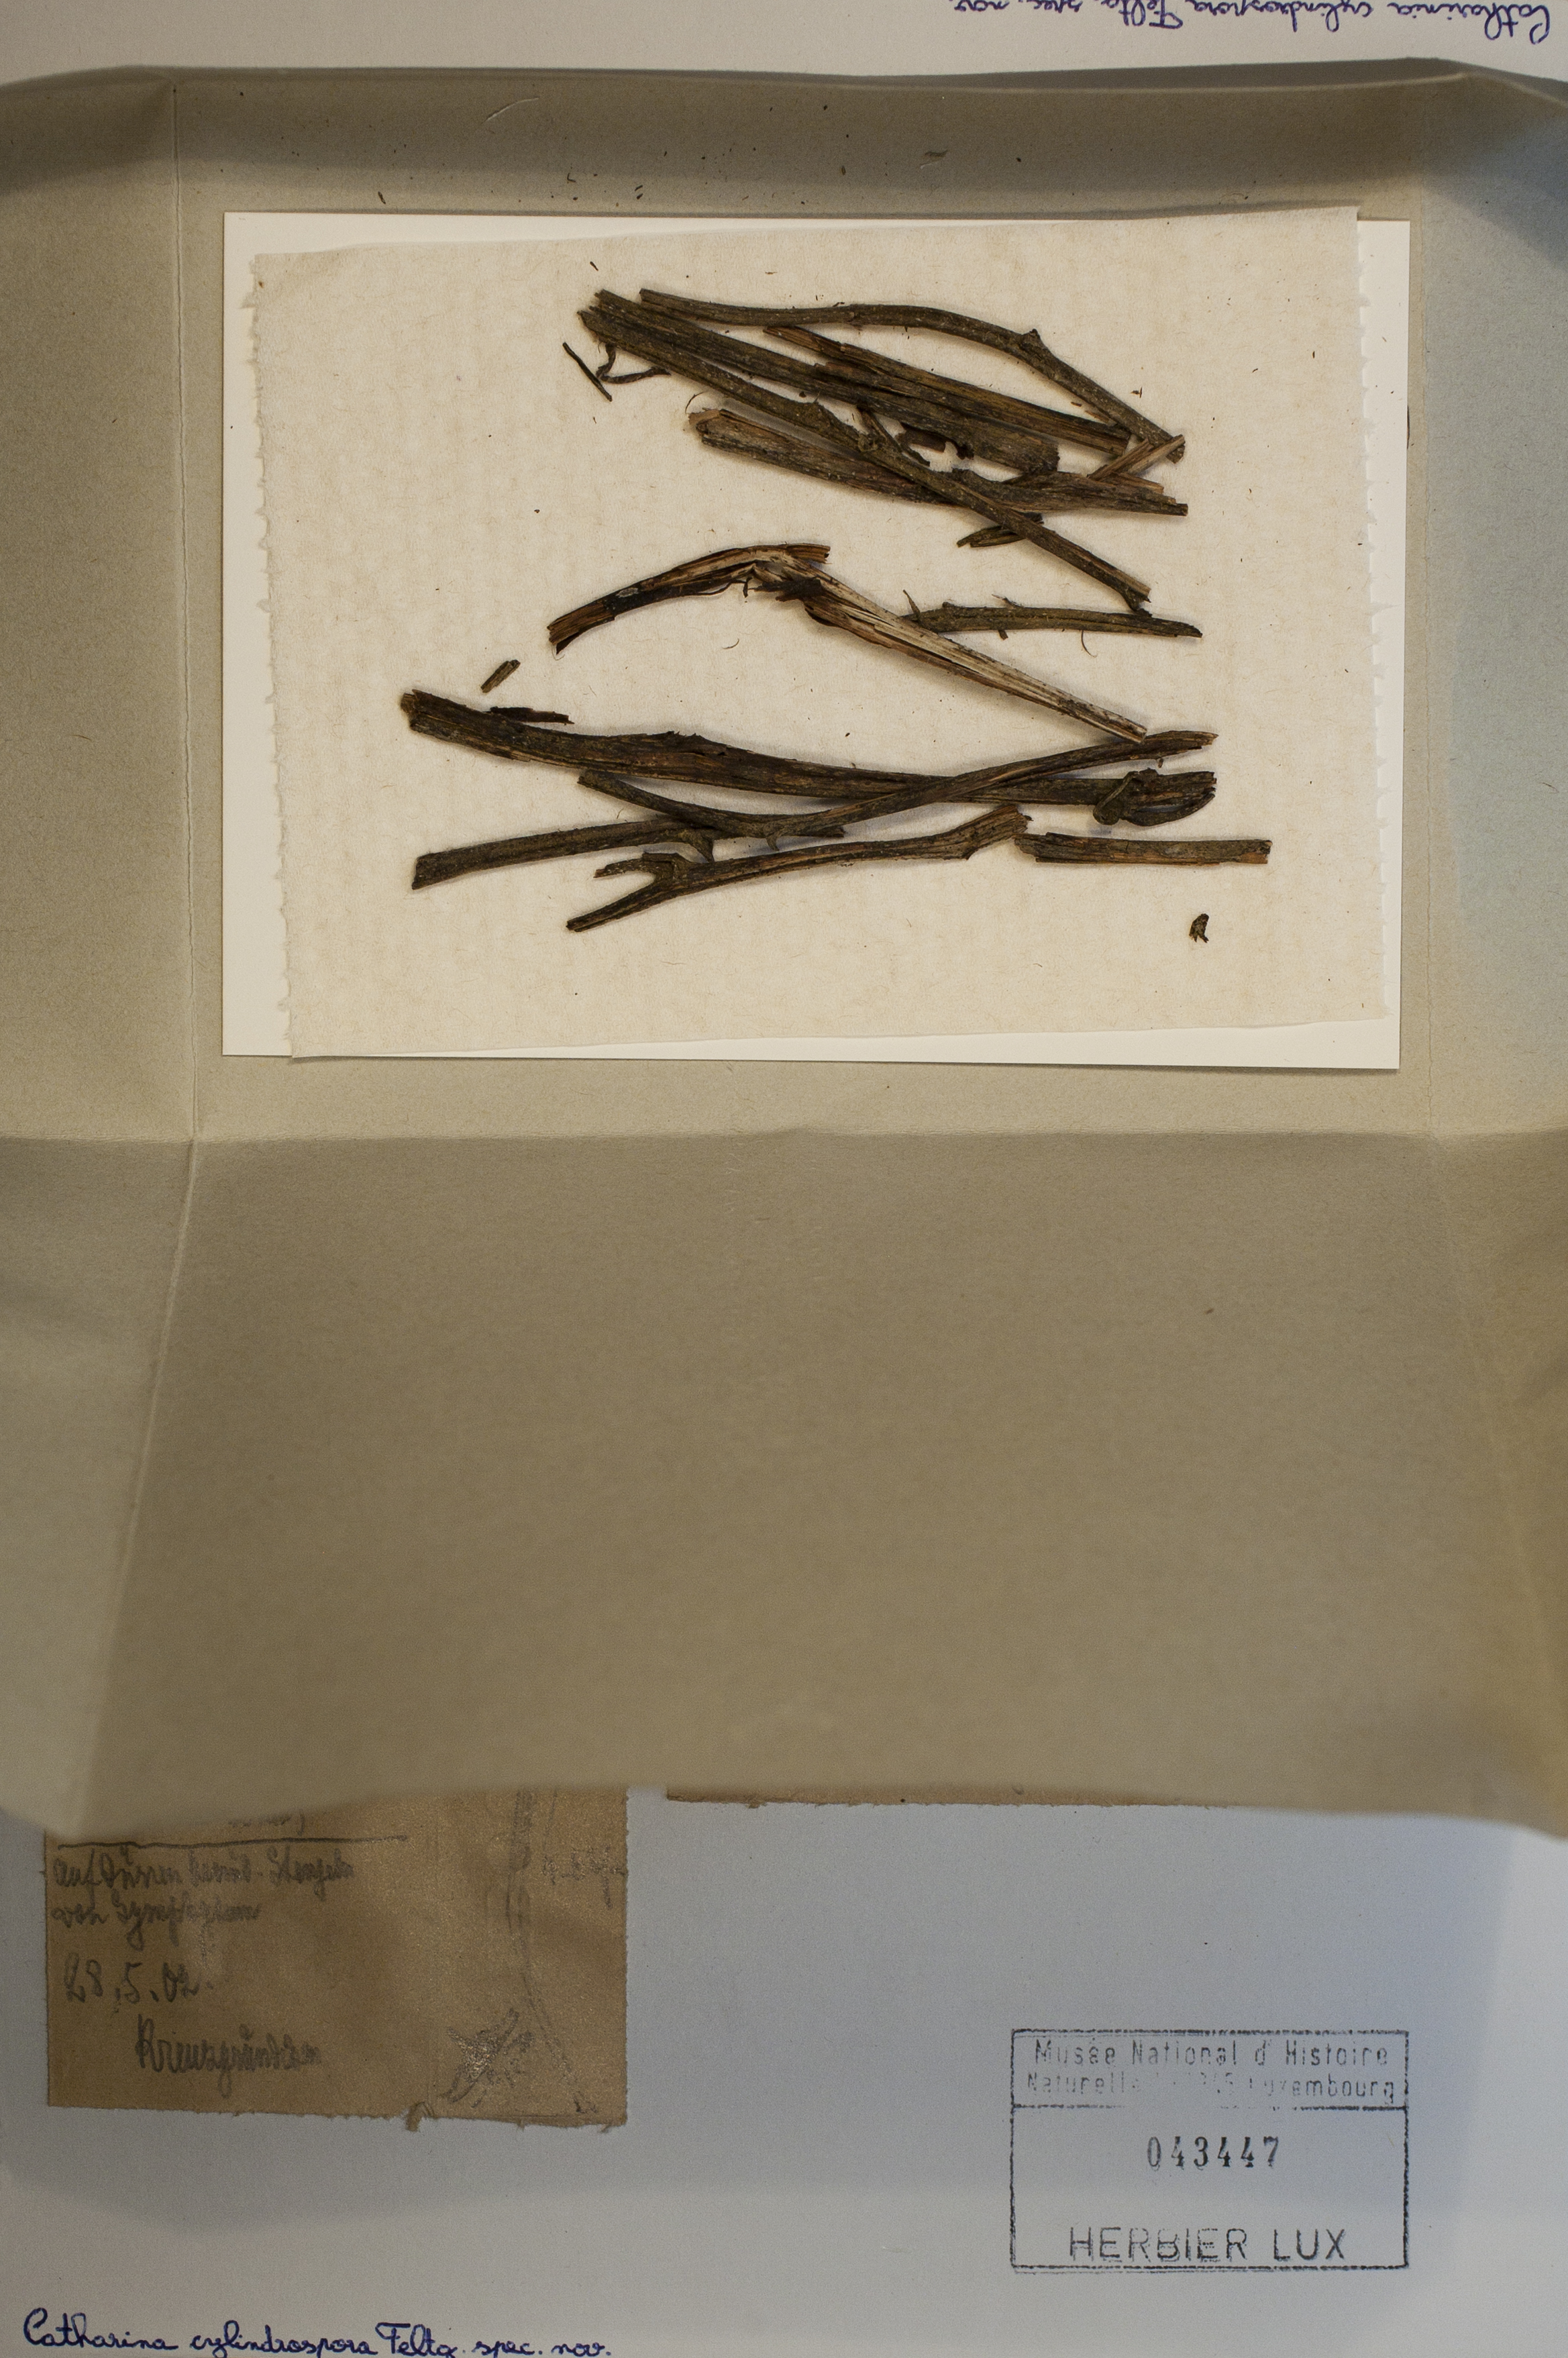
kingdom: Fungi
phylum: Ascomycota
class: Lecanoromycetes
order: Ostropales
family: Thelenellaceae
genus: Catharinia
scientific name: Catharinia
